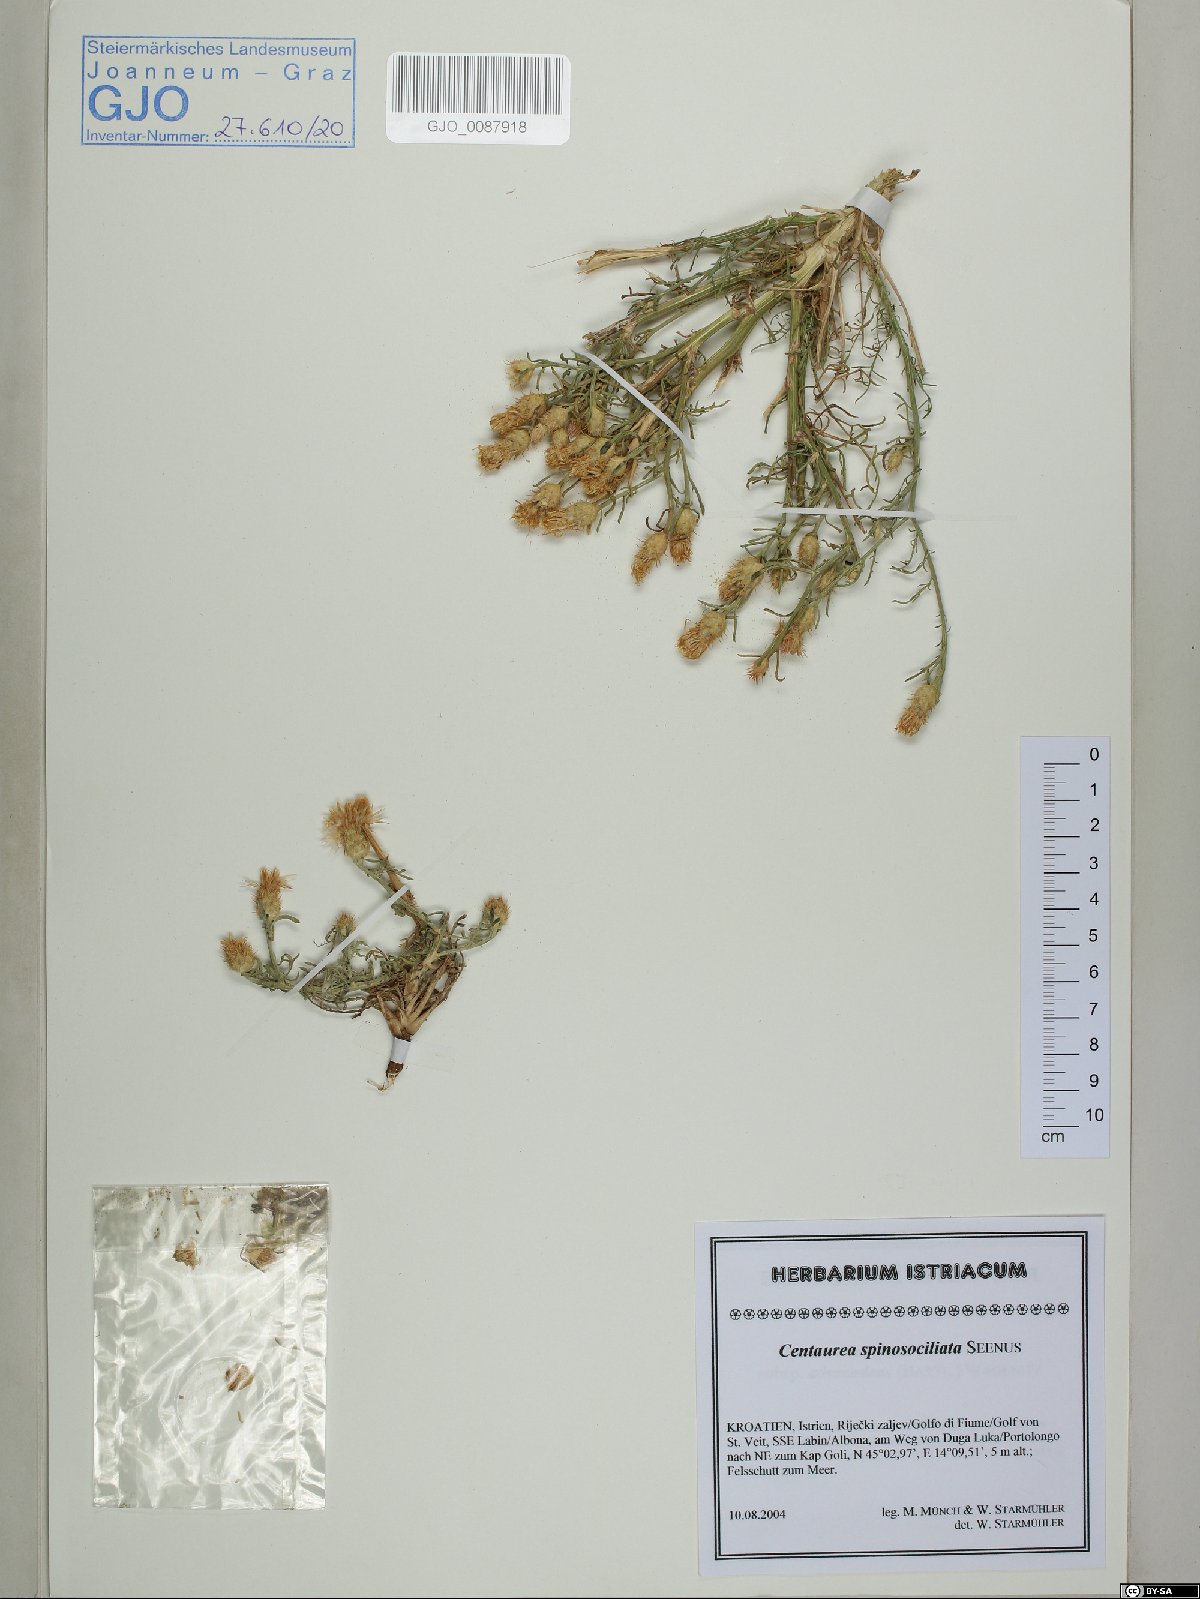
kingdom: Plantae
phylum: Tracheophyta
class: Magnoliopsida
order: Asterales
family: Asteraceae
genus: Centaurea
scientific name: Centaurea spinosociliata
